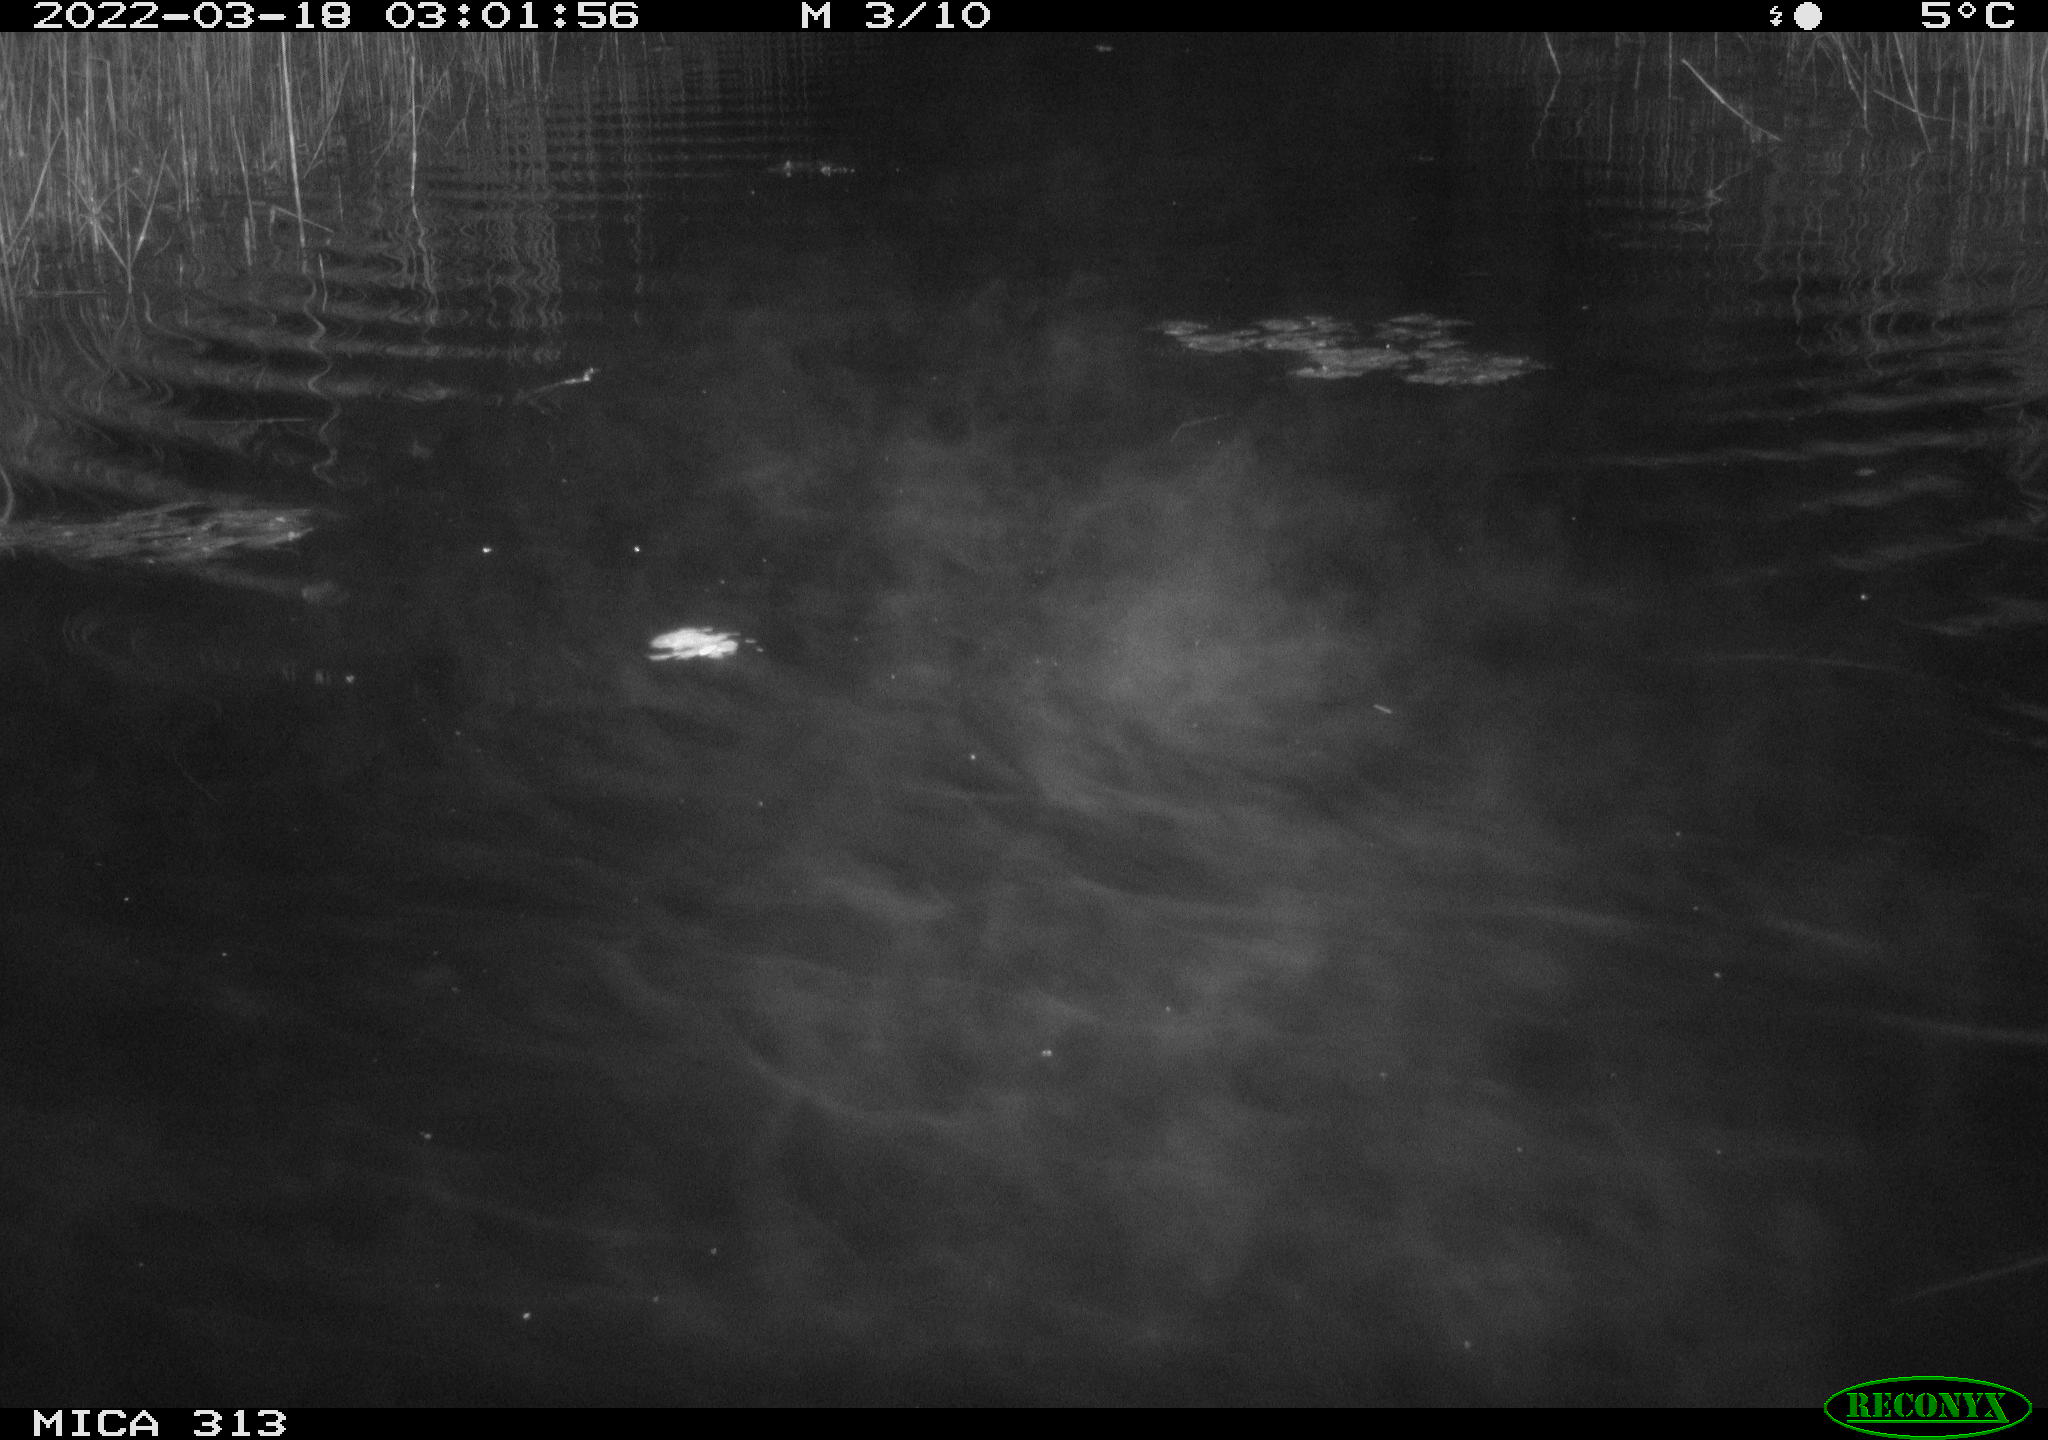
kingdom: Animalia
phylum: Chordata
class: Mammalia
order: Rodentia
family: Cricetidae
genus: Ondatra
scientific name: Ondatra zibethicus
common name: Muskrat
